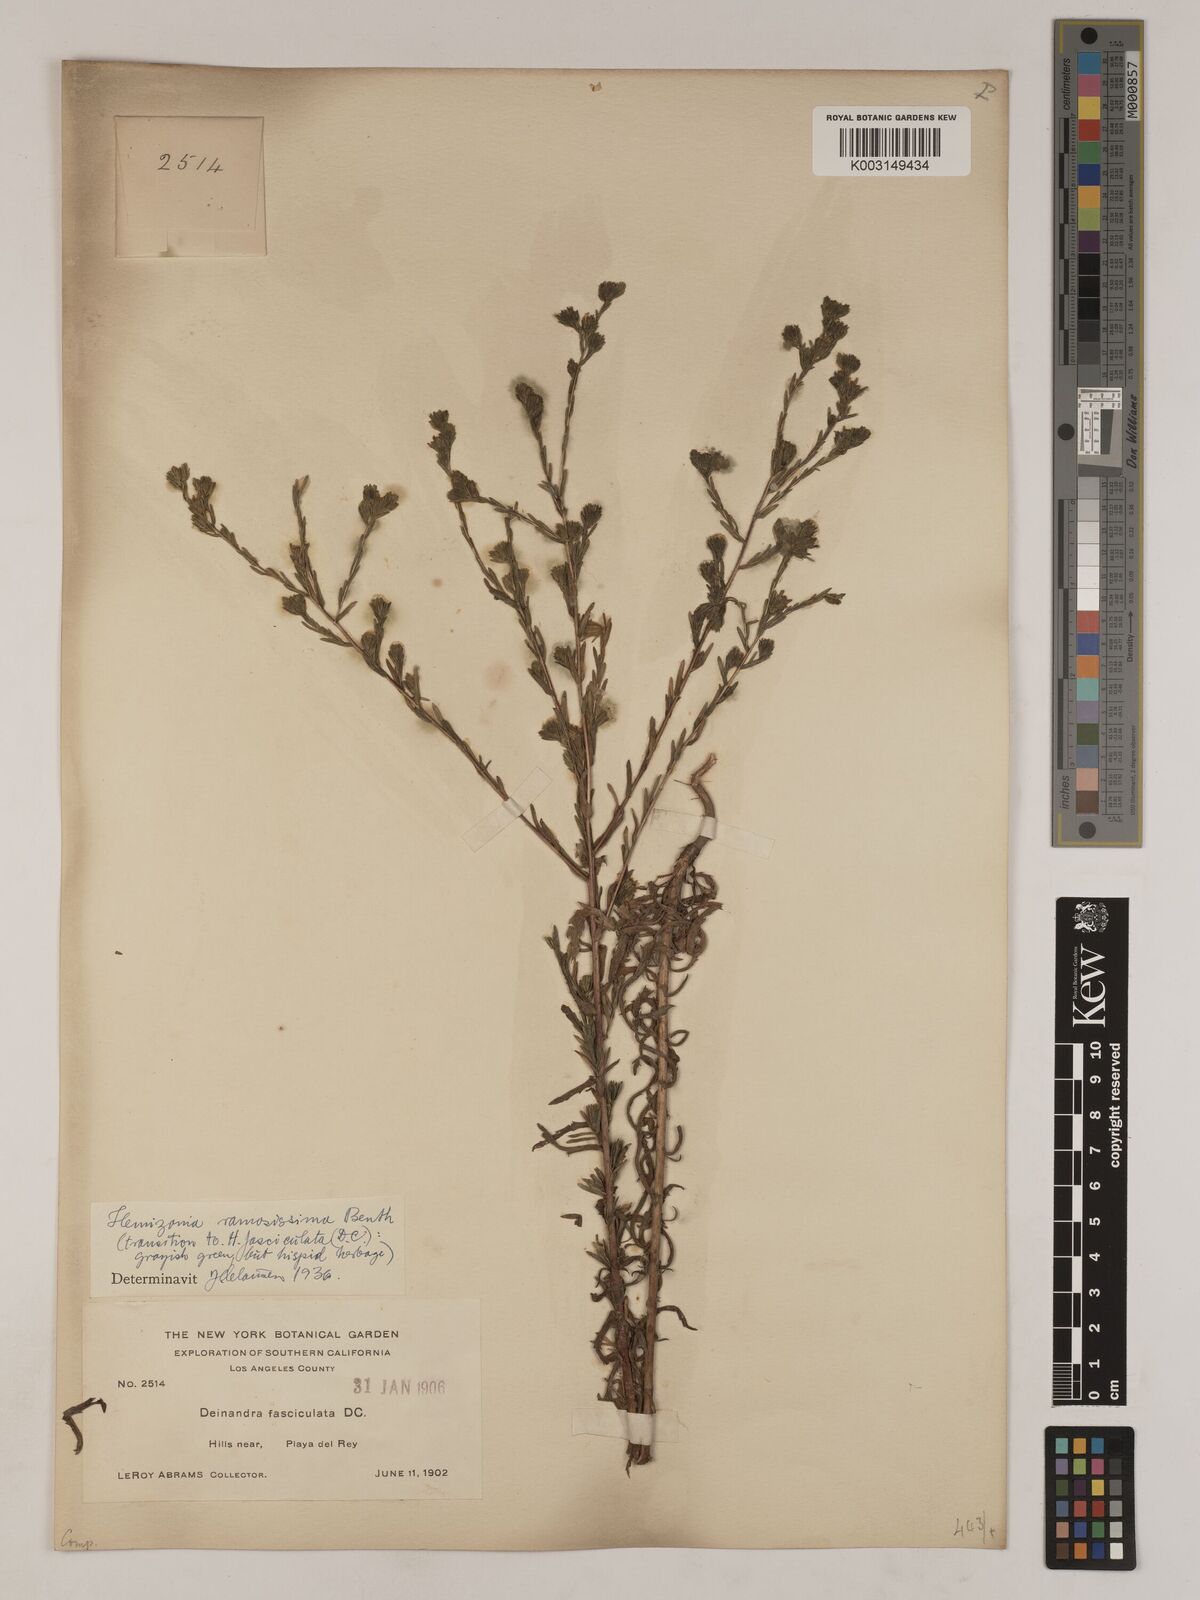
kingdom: Plantae
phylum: Tracheophyta
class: Magnoliopsida
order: Asterales
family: Asteraceae
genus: Deinandra
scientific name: Deinandra fasciculata
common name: Clustered tarweed
